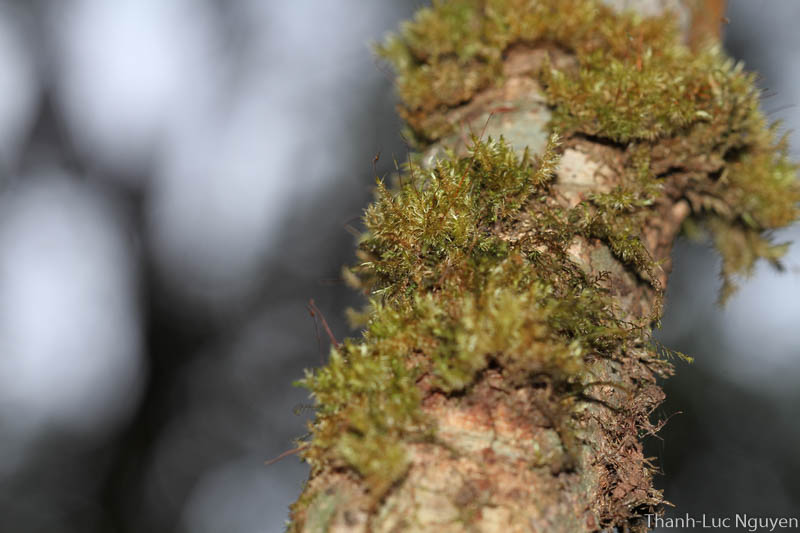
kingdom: Plantae
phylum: Bryophyta
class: Bryopsida
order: Hypnales
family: Sematophyllaceae
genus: Acroporium
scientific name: Acroporium
